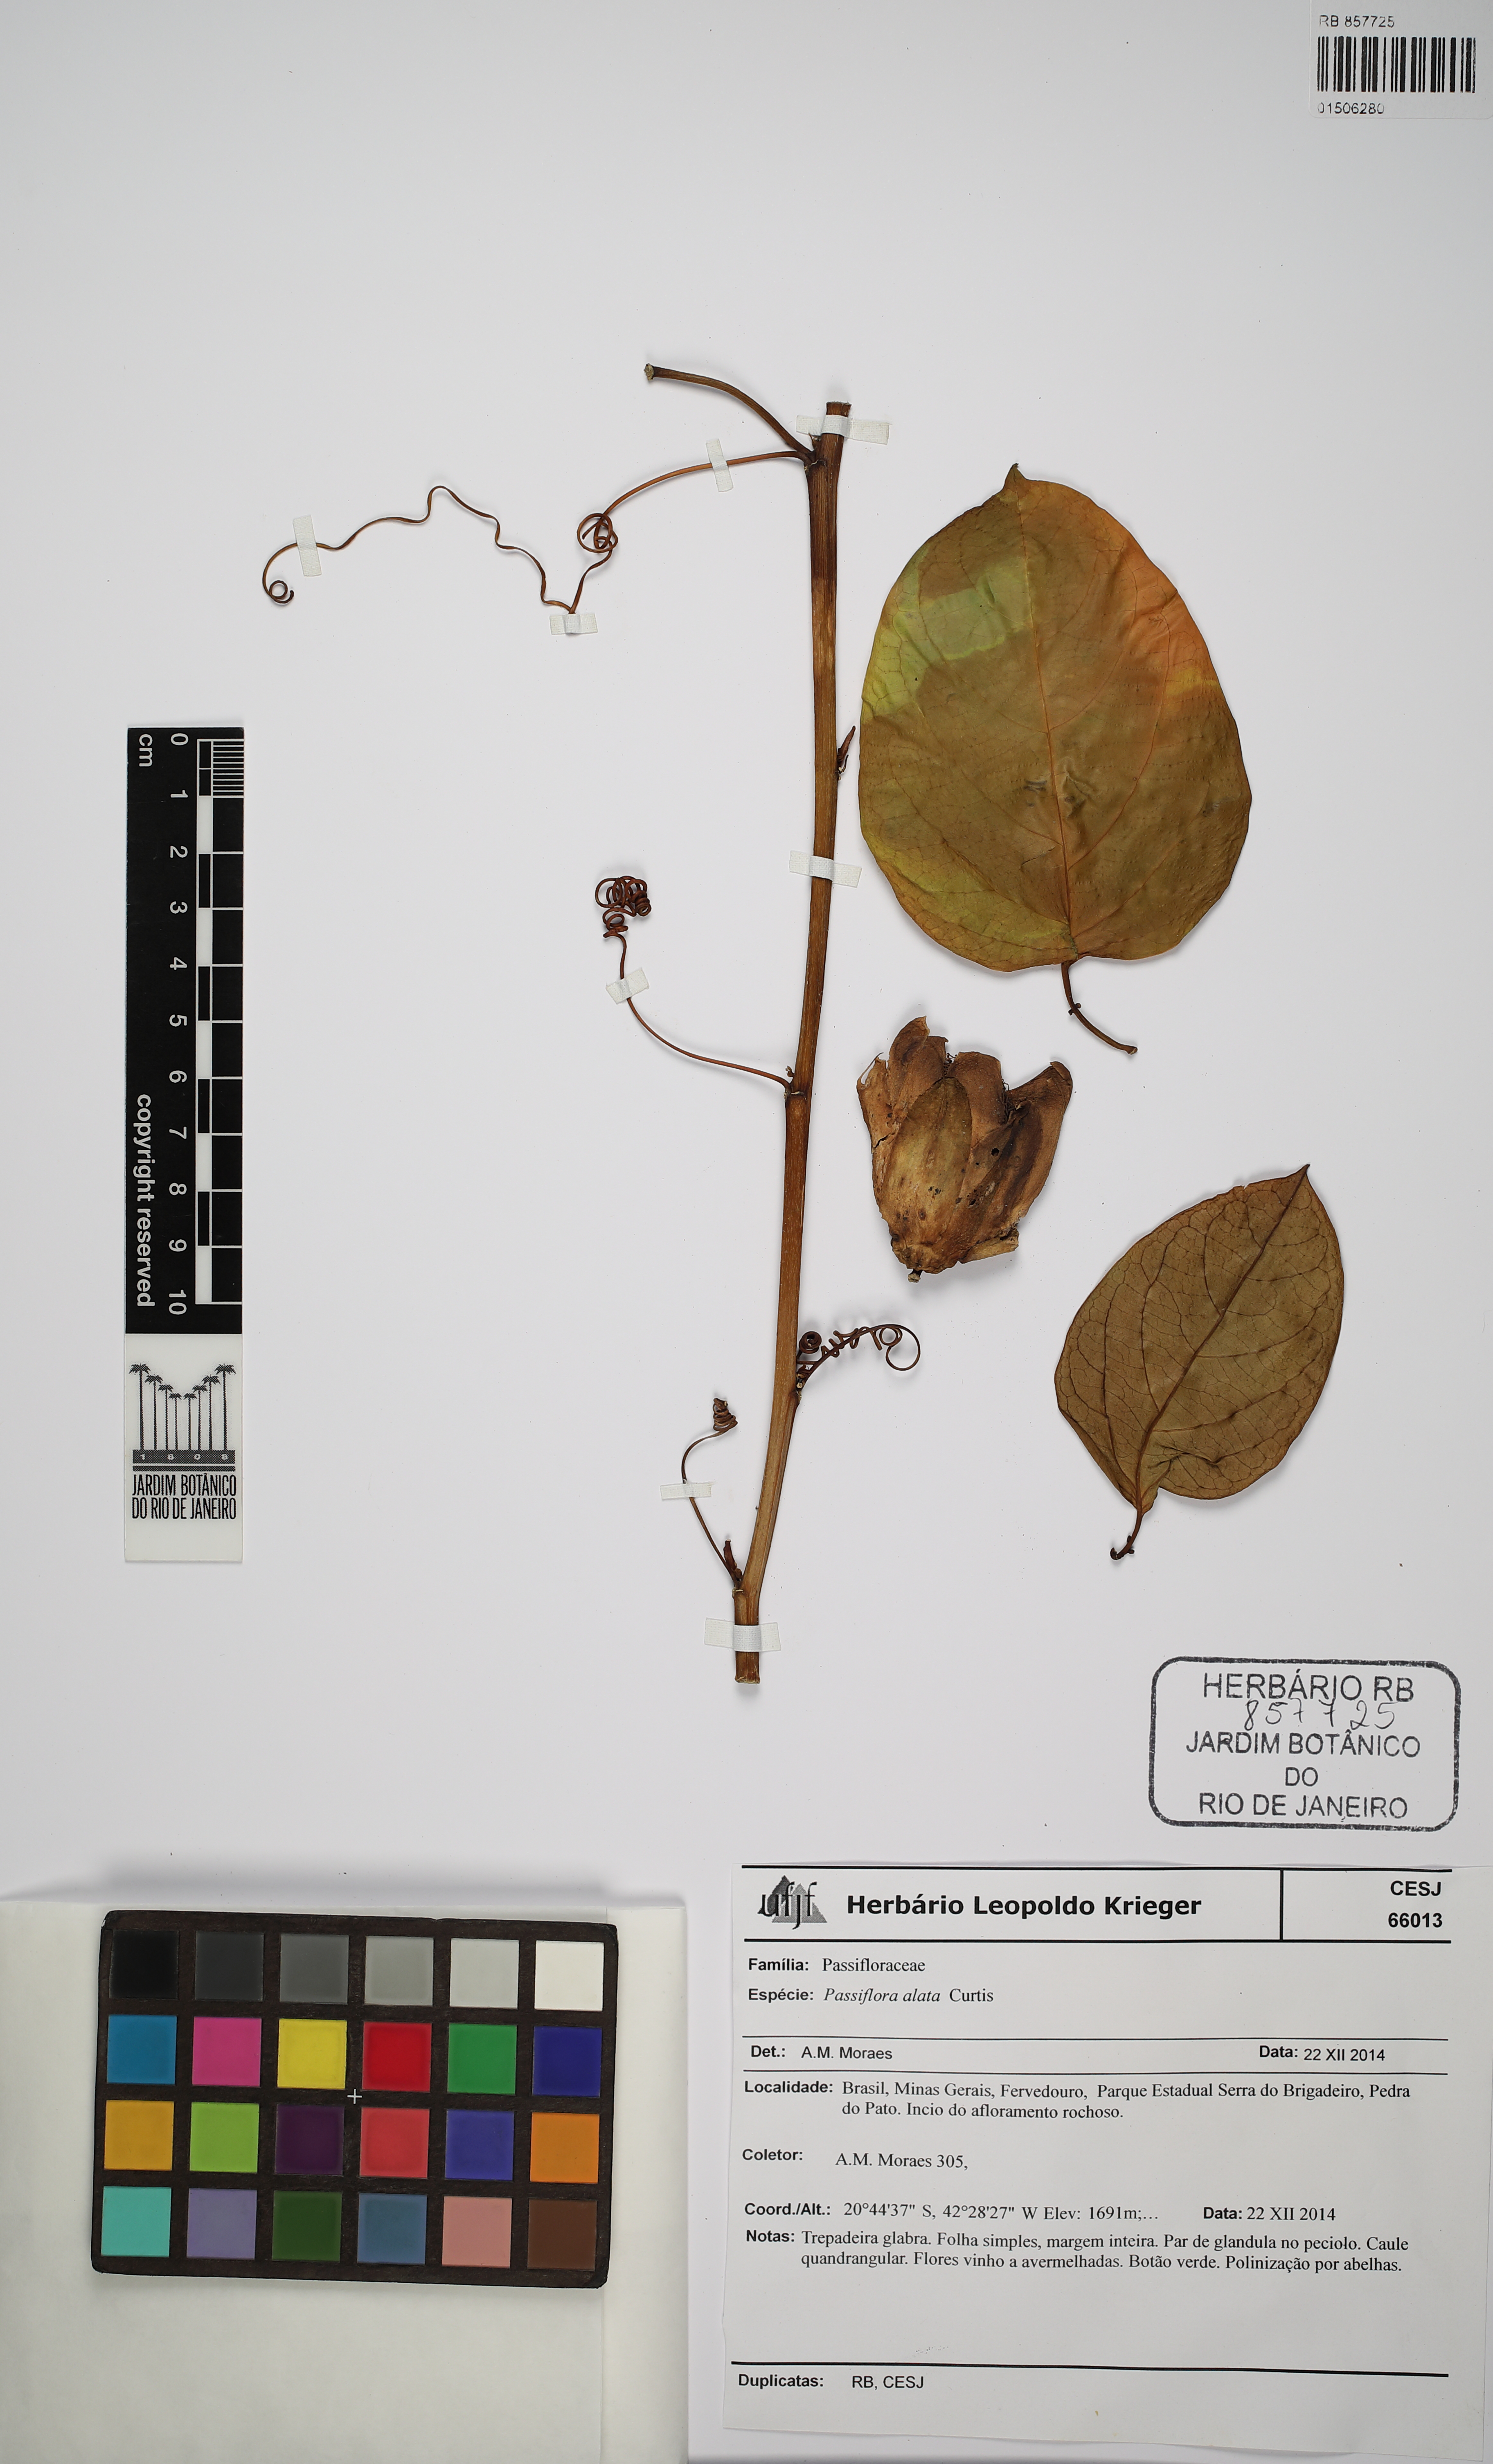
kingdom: Plantae
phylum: Tracheophyta
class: Magnoliopsida
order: Malpighiales
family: Passifloraceae
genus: Passiflora
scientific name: Passiflora alata
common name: Wing-stemmed passion flower
